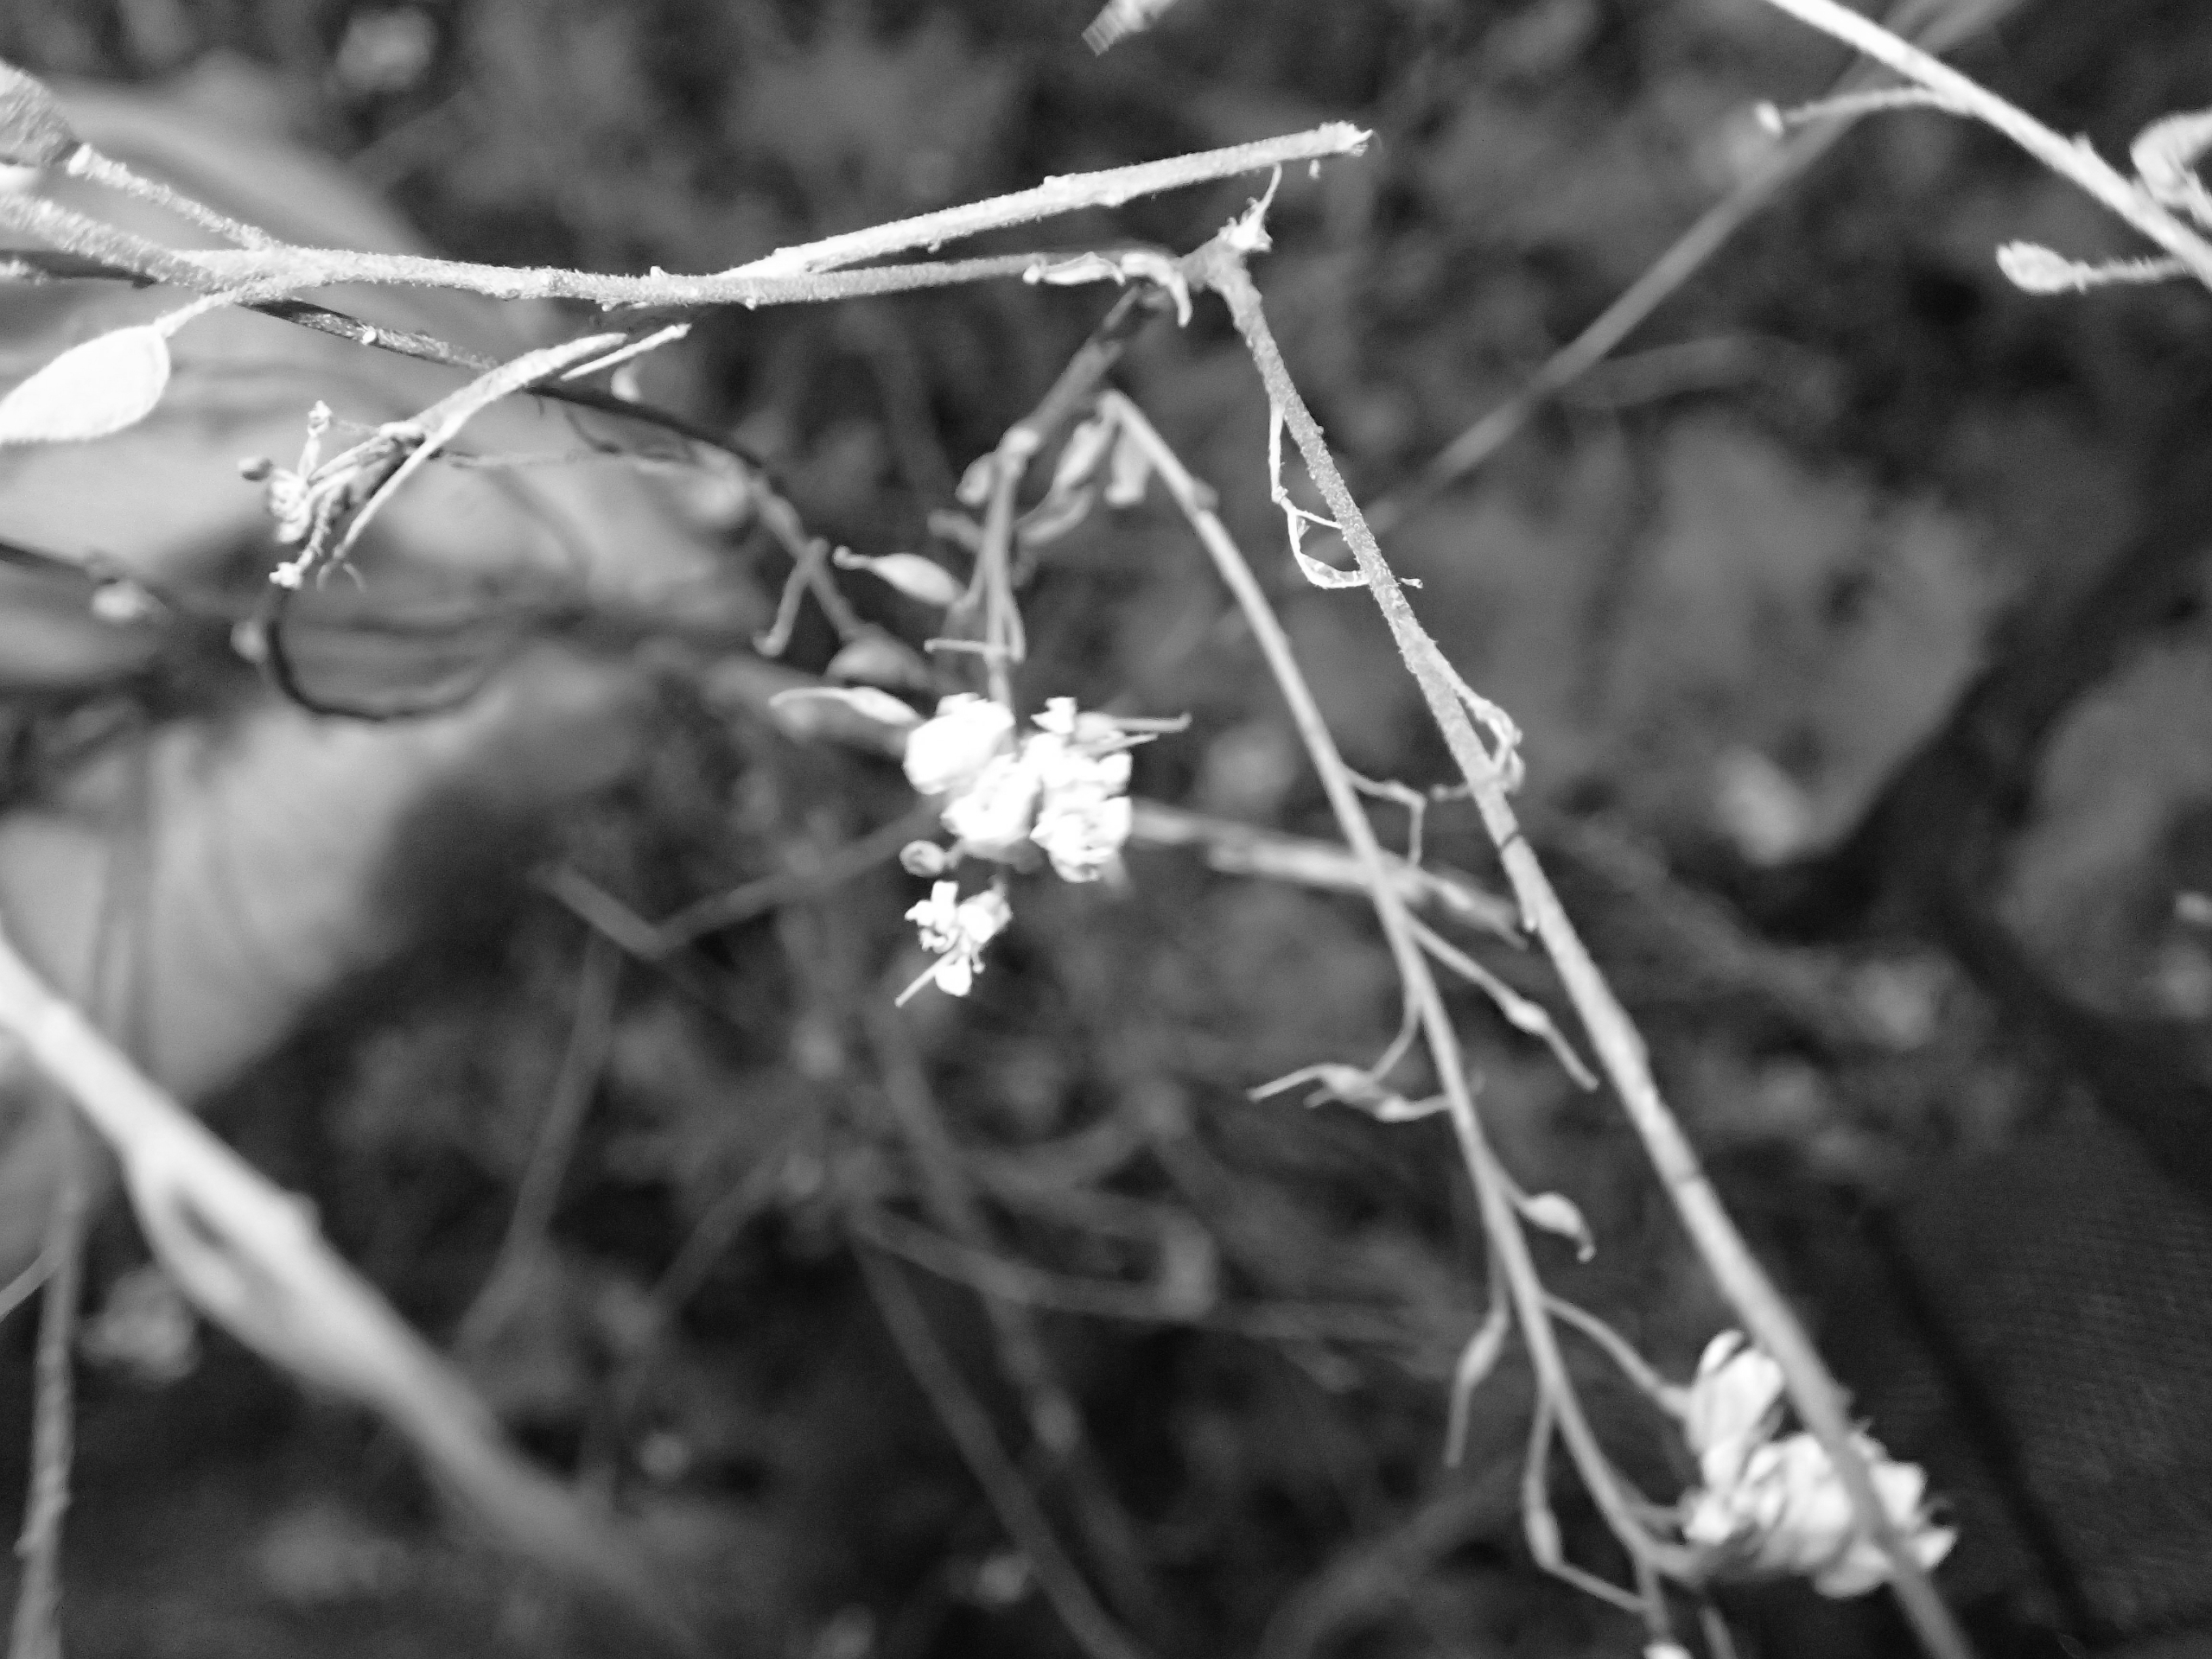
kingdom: Plantae
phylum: Tracheophyta
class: Magnoliopsida
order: Brassicales
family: Brassicaceae
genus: Berteroa
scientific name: Berteroa incana
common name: Kløvplade
